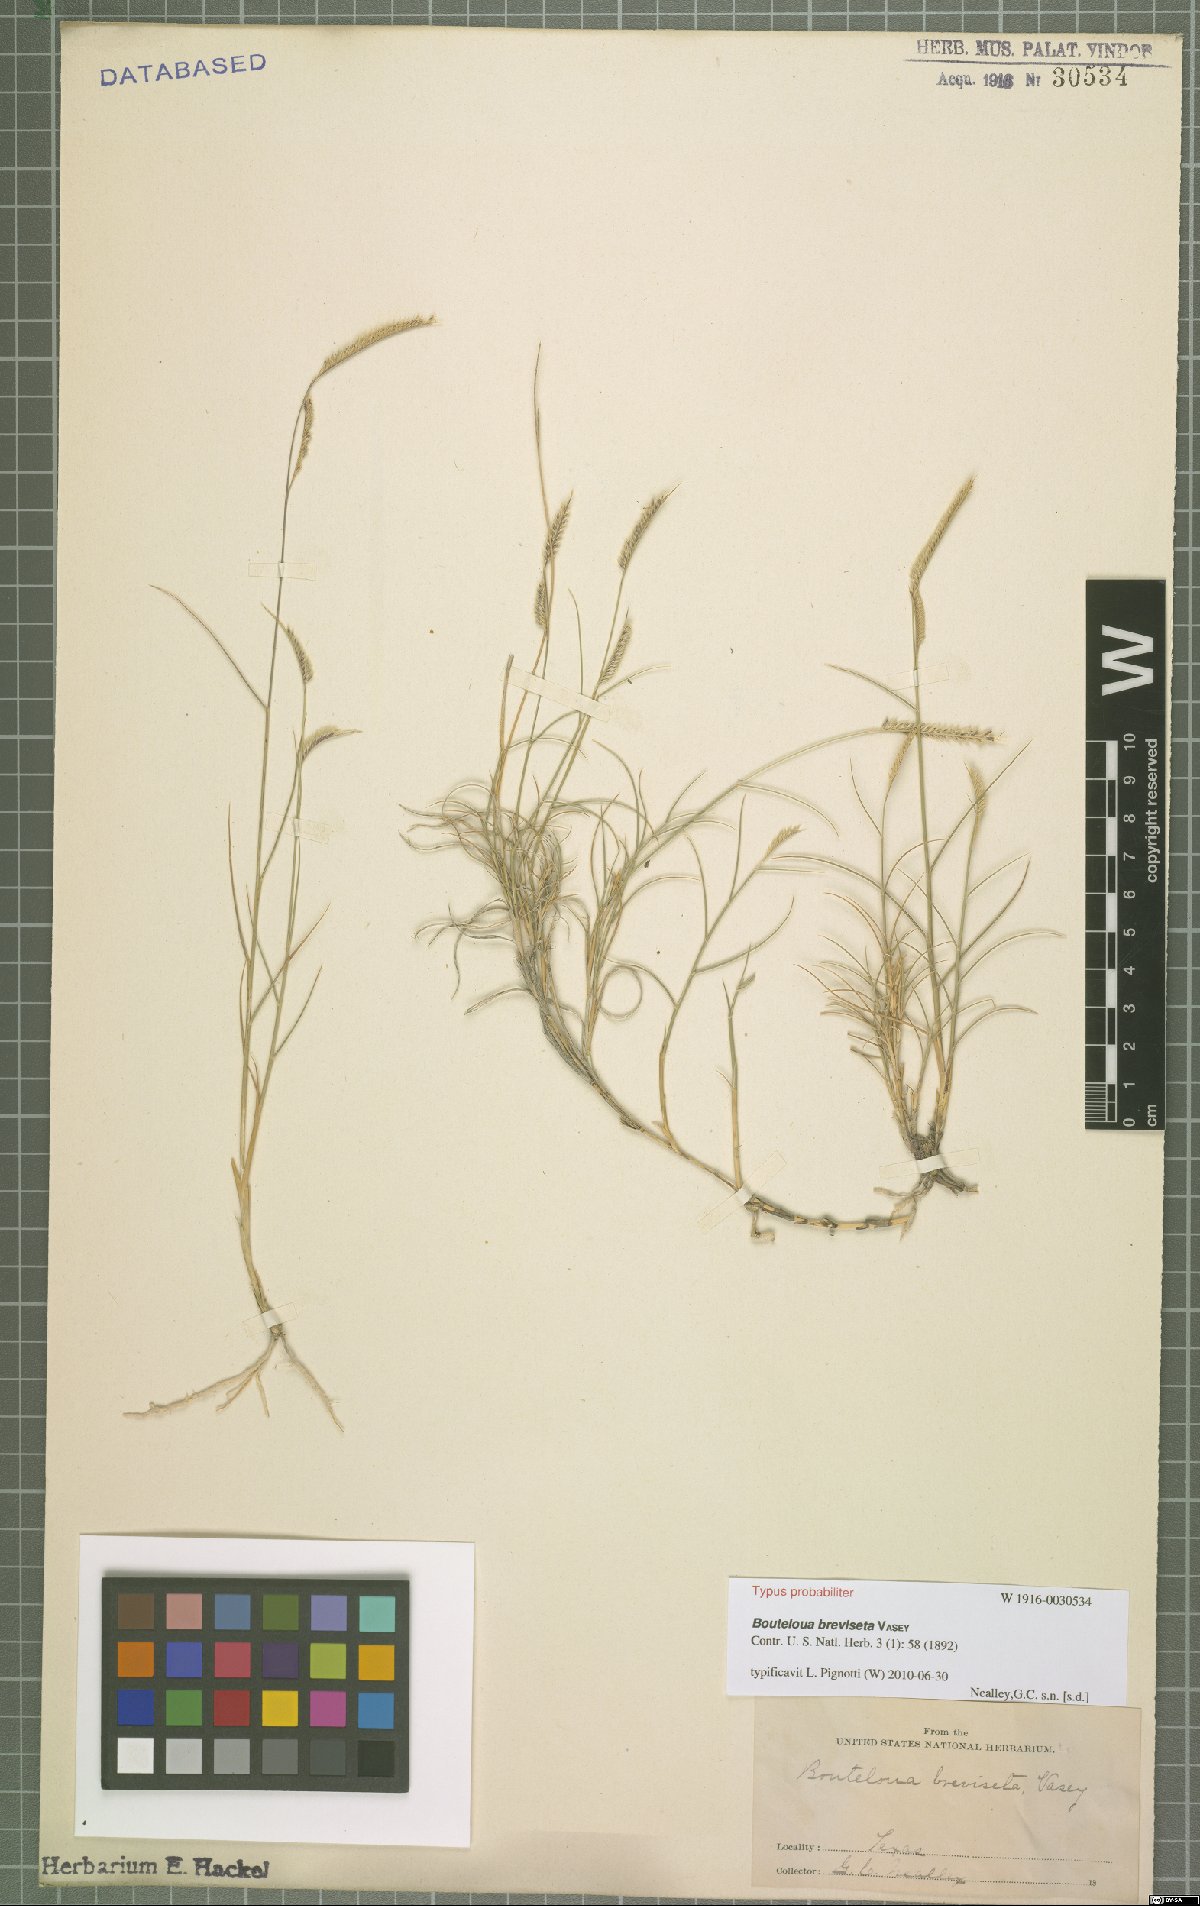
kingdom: Plantae
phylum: Tracheophyta
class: Liliopsida
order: Poales
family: Poaceae
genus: Bouteloua
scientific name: Bouteloua breviseta
